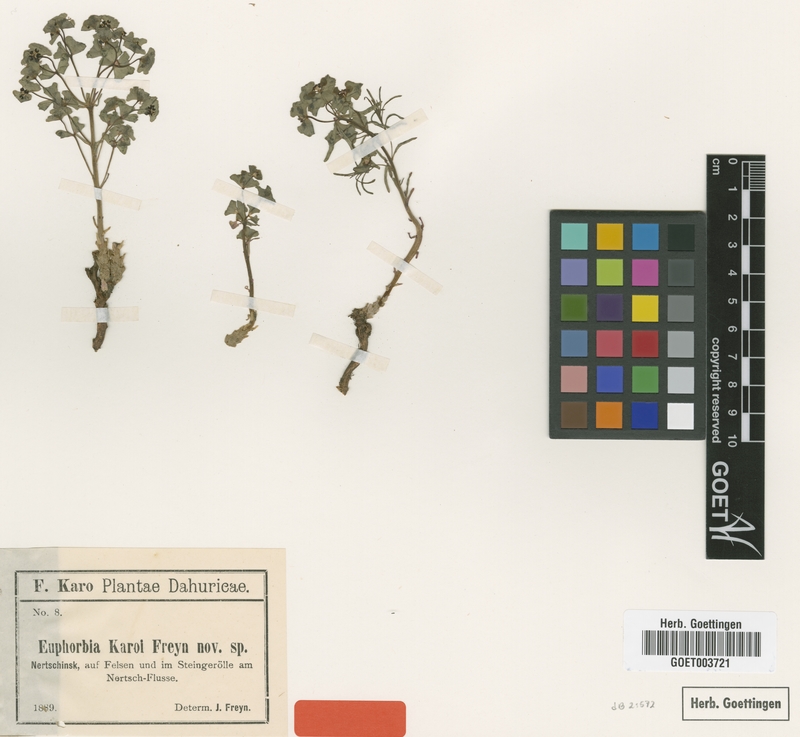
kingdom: Plantae
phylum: Tracheophyta
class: Magnoliopsida
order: Malpighiales
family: Euphorbiaceae
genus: Euphorbia
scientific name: Euphorbia esula
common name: Leafy spurge
